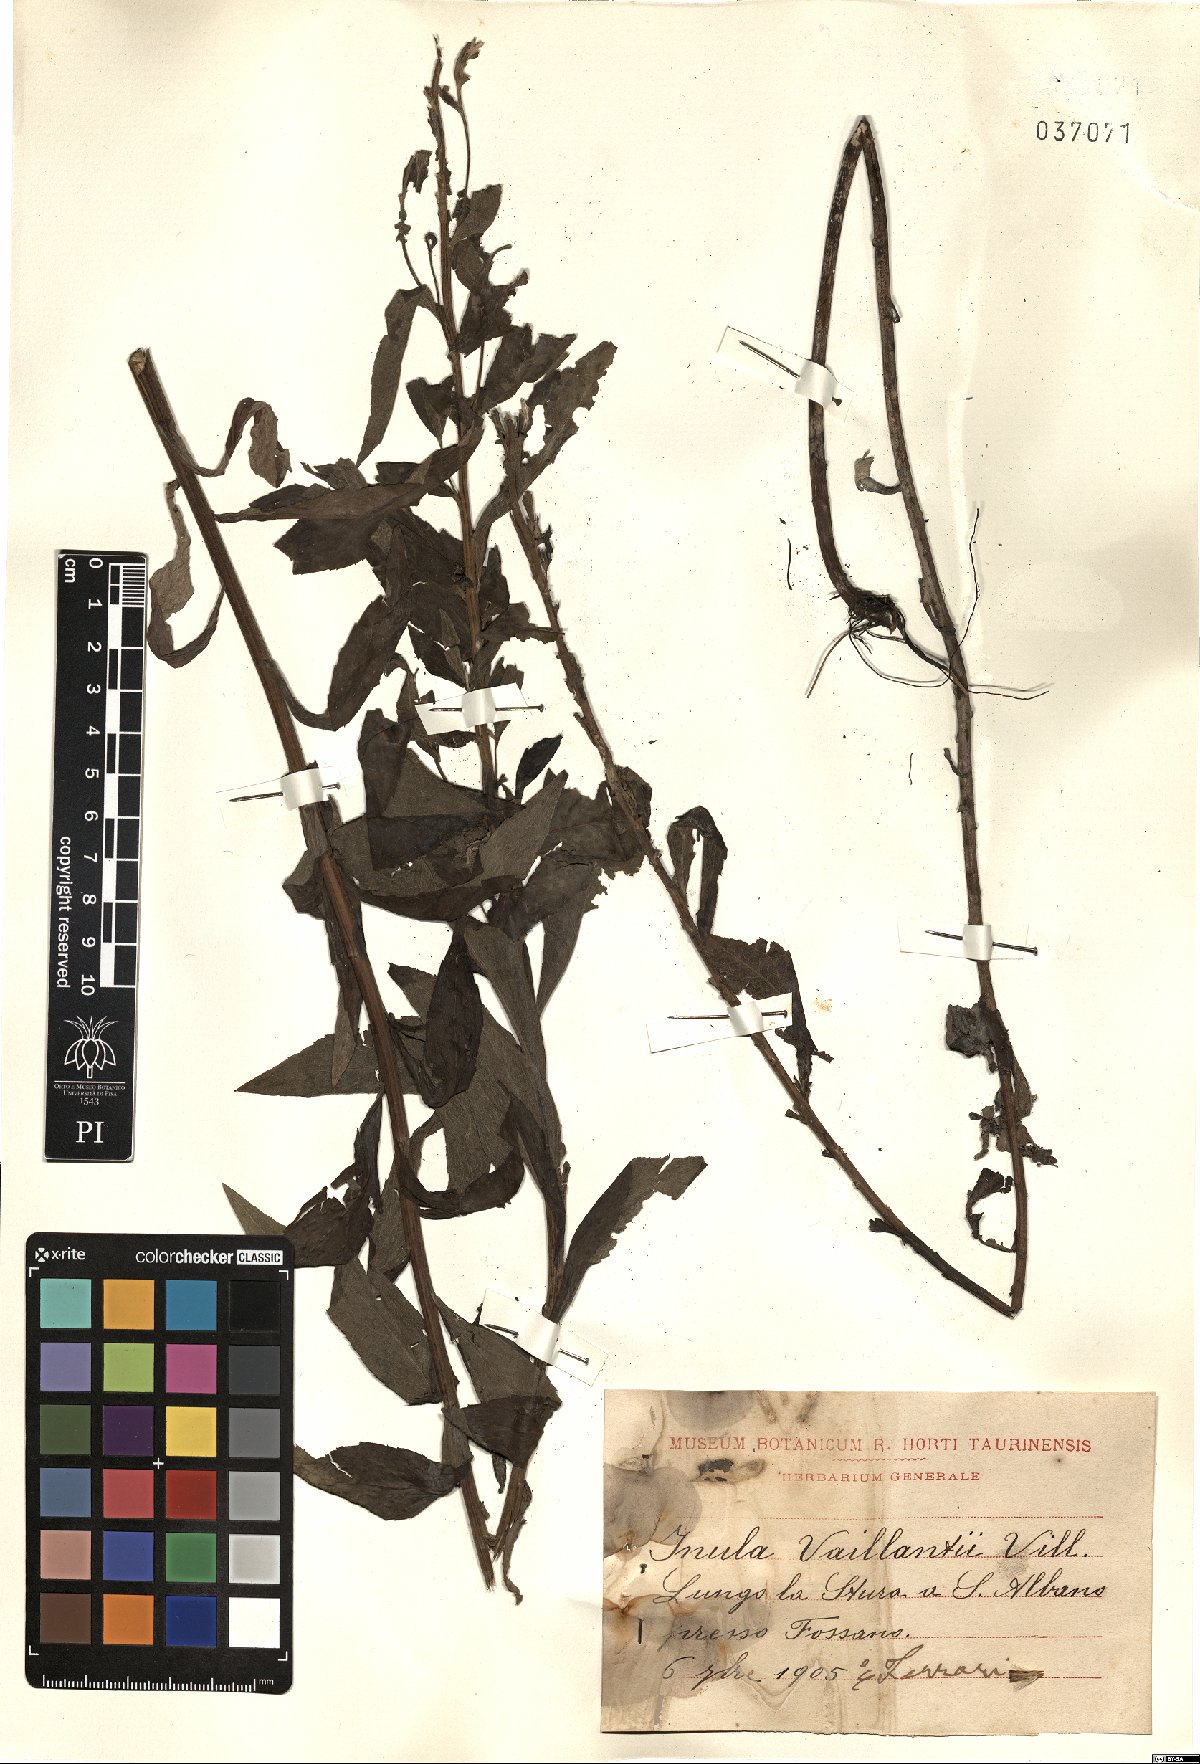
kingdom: Plantae
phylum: Tracheophyta
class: Magnoliopsida
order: Asterales
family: Asteraceae
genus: Pentanema
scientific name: Pentanema helveticum
